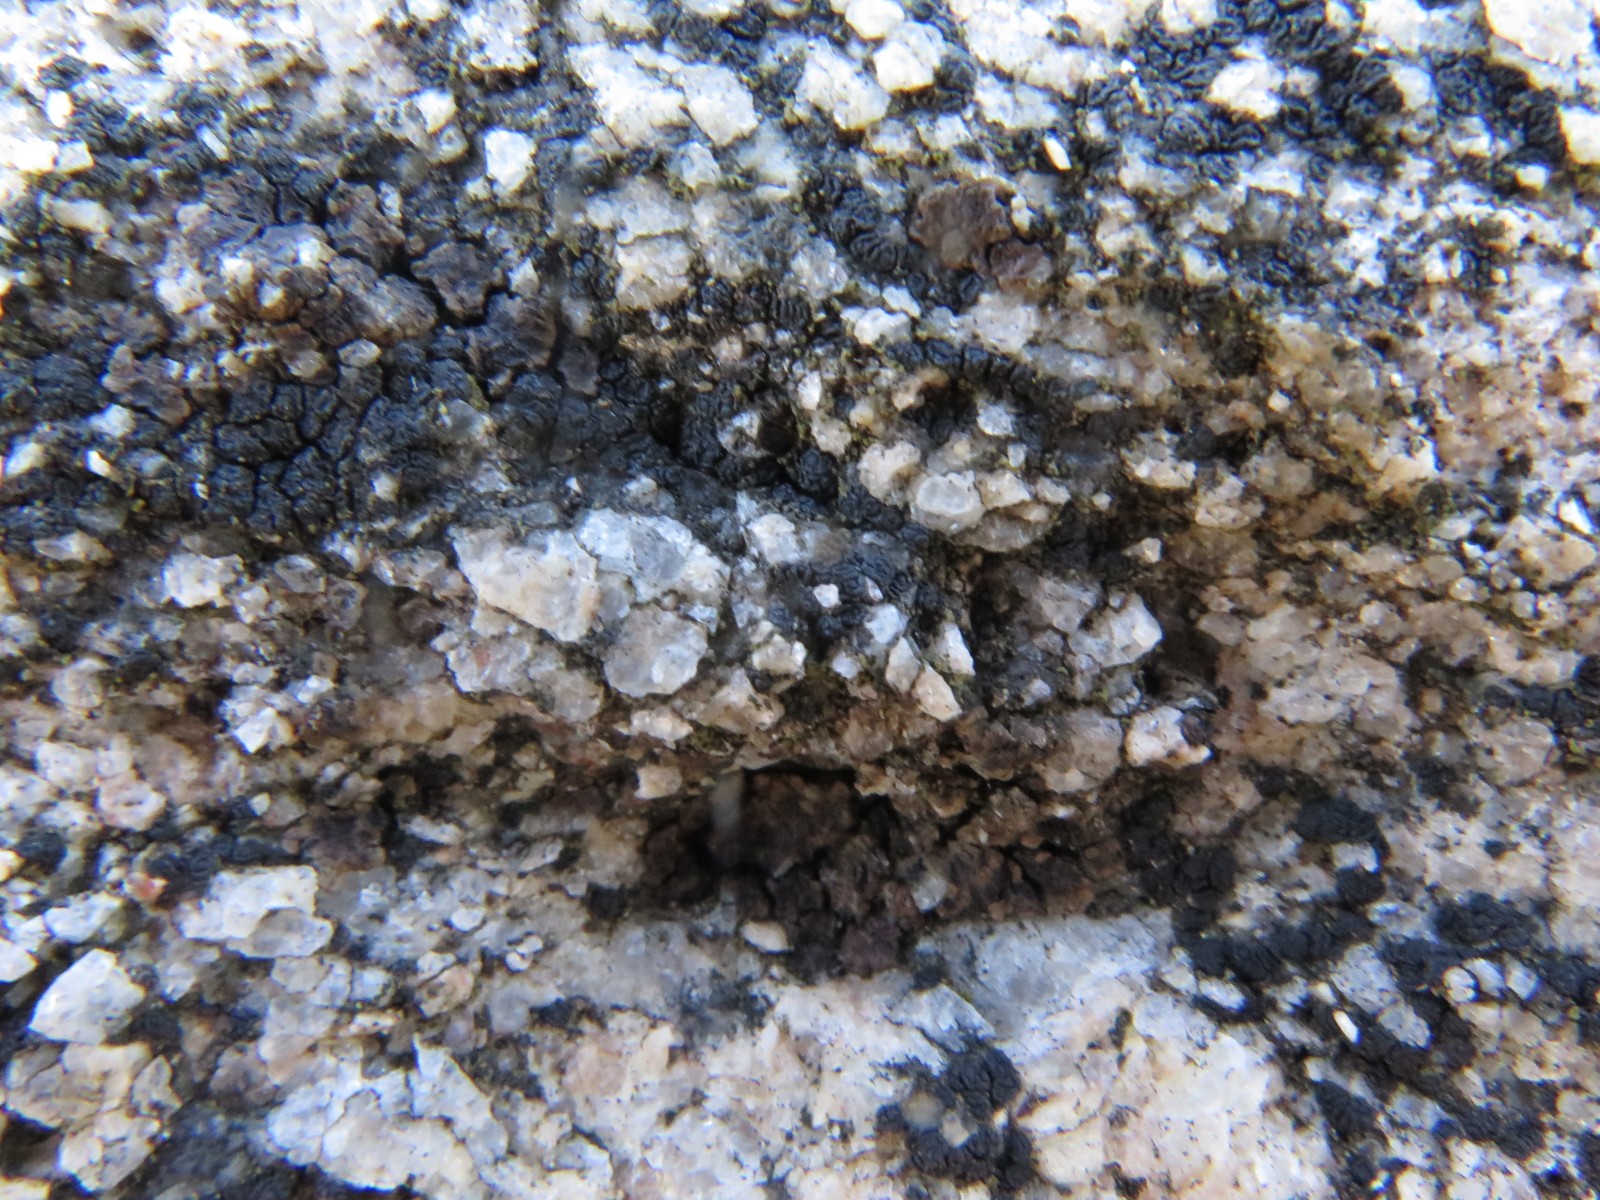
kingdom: Fungi
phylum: Ascomycota
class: Lecanoromycetes
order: Acarosporales
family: Acarosporaceae
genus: Acarospora
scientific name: Acarospora privigna
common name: sort foldekantlav
